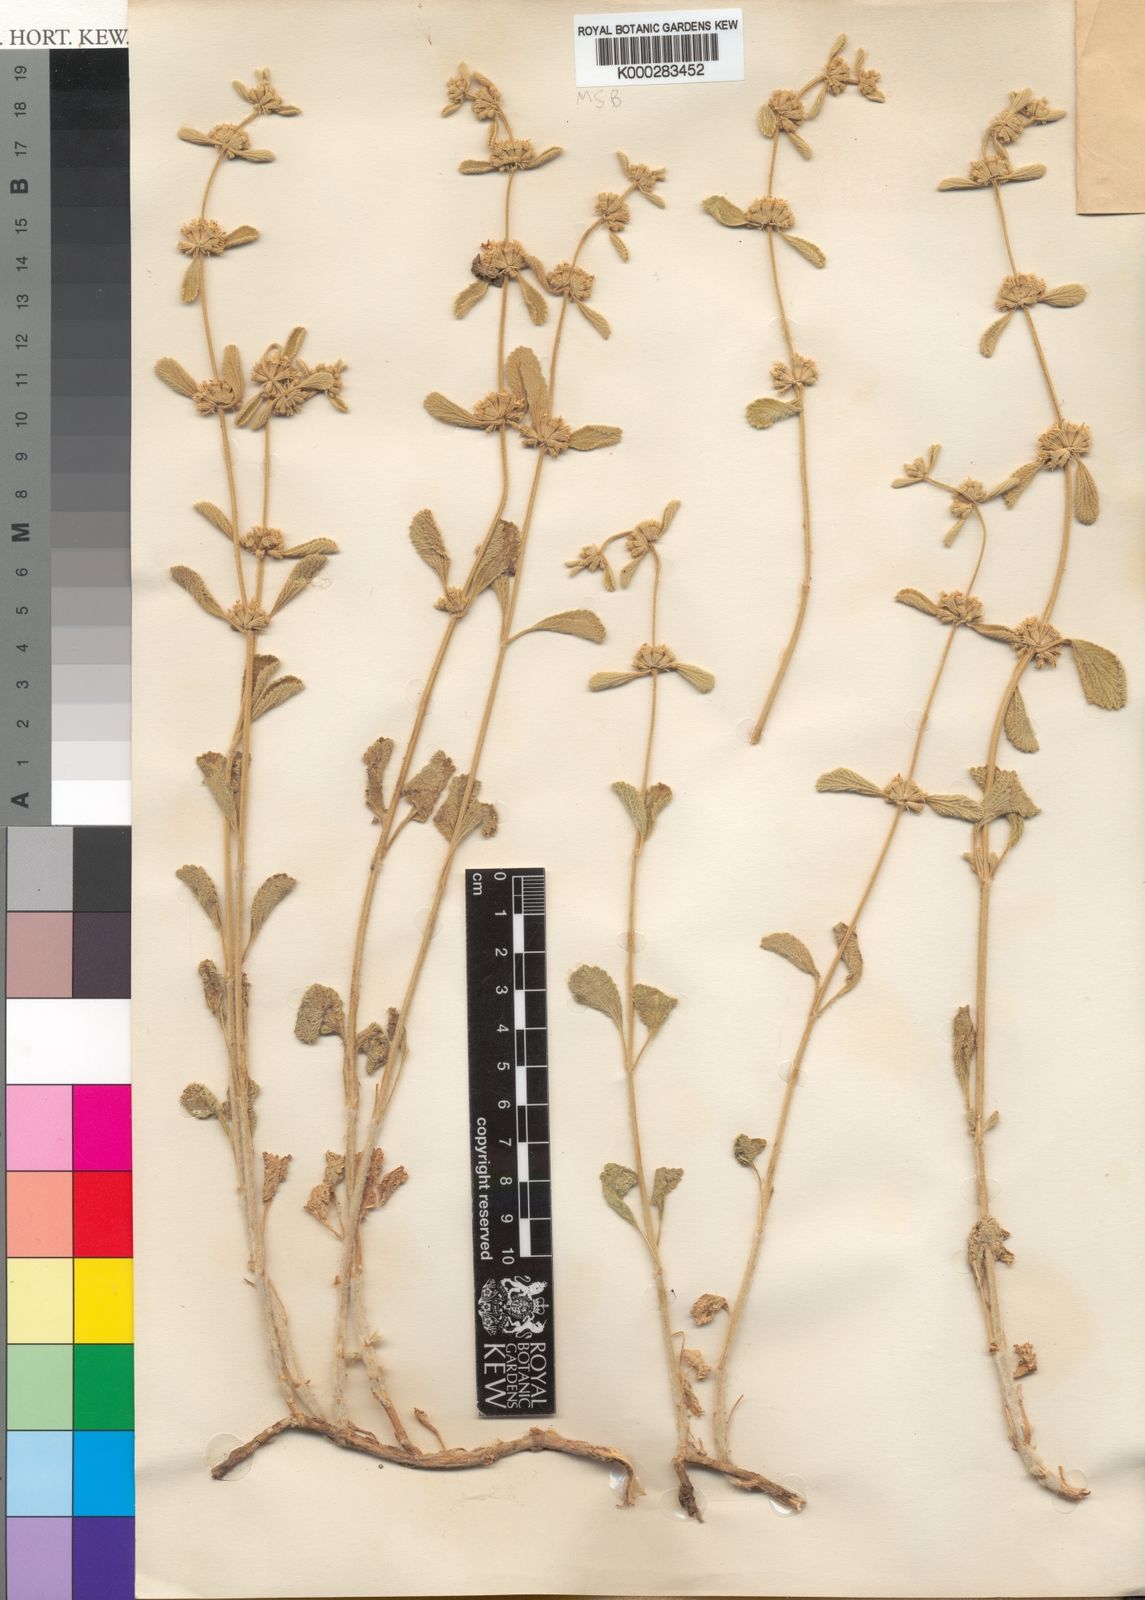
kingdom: Plantae
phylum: Tracheophyta
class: Magnoliopsida
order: Lamiales
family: Lamiaceae
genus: Marrubium
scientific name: Marrubium cuneatum
